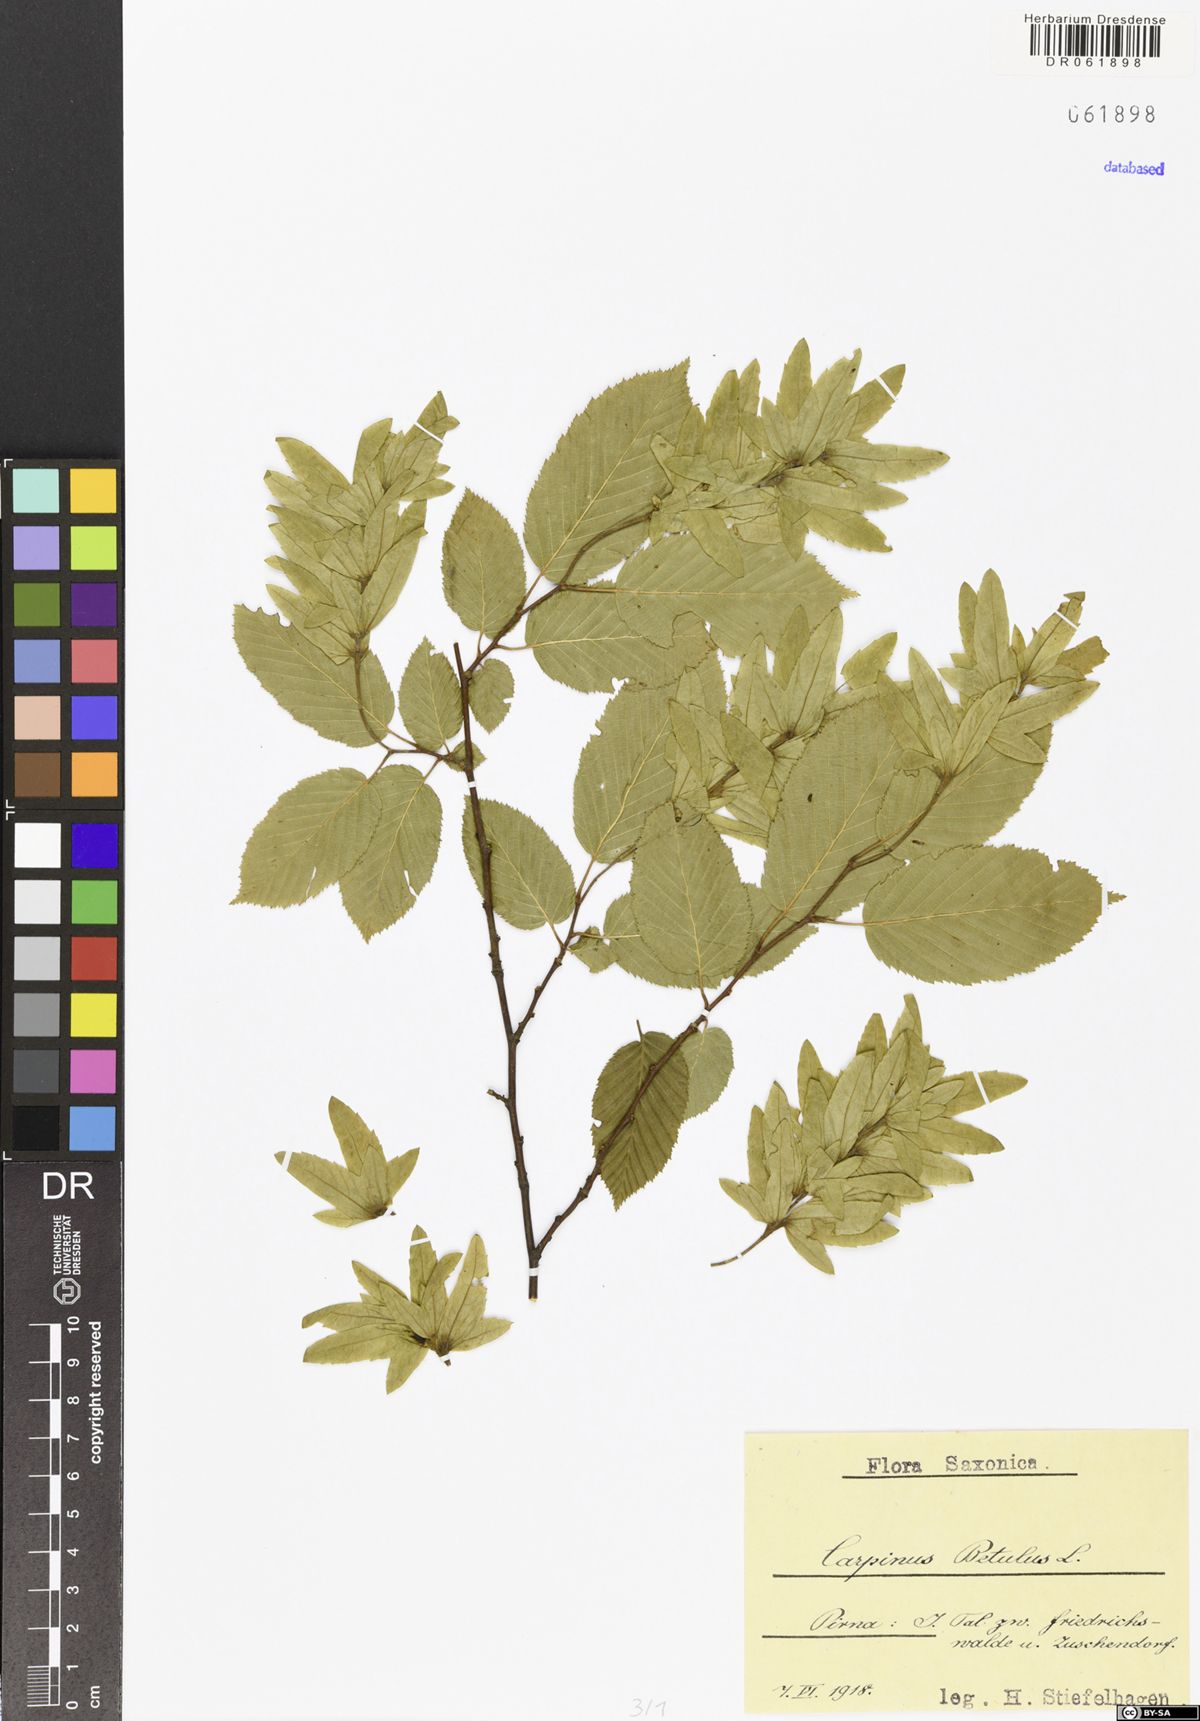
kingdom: Plantae
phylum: Tracheophyta
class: Magnoliopsida
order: Fagales
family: Betulaceae
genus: Carpinus
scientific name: Carpinus betulus
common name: Hornbeam
